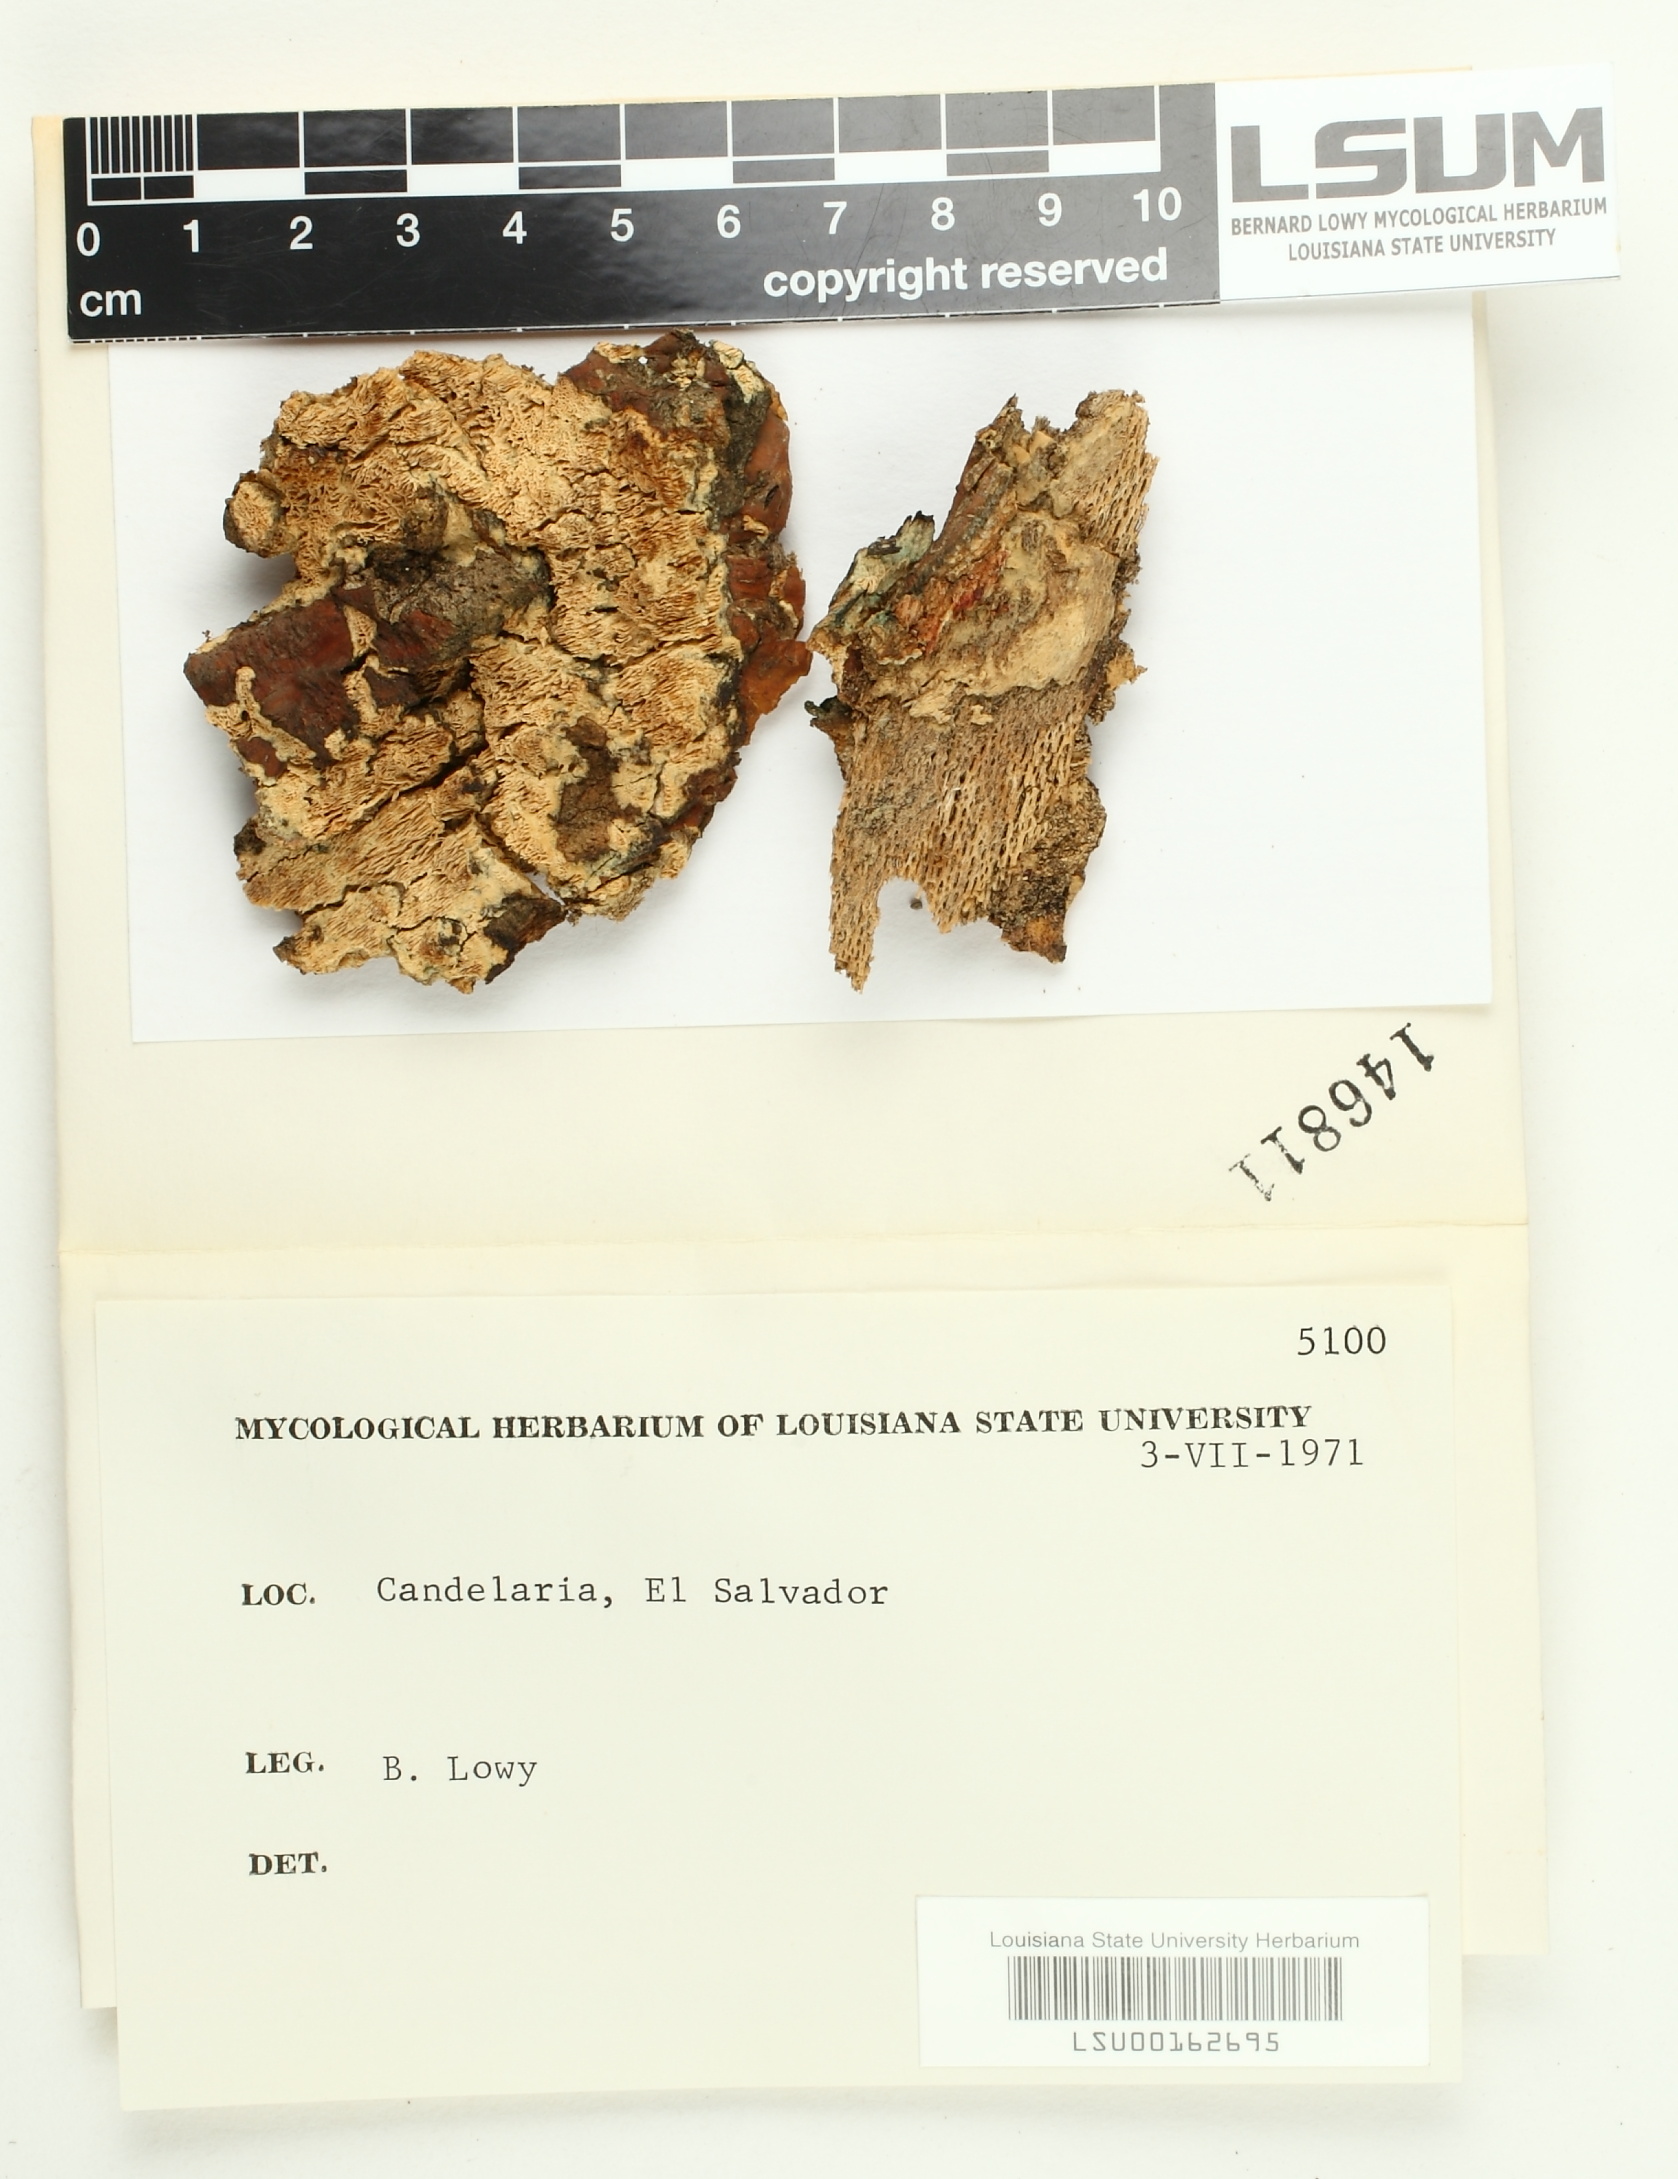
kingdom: Fungi
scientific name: Fungi
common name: Fungi
